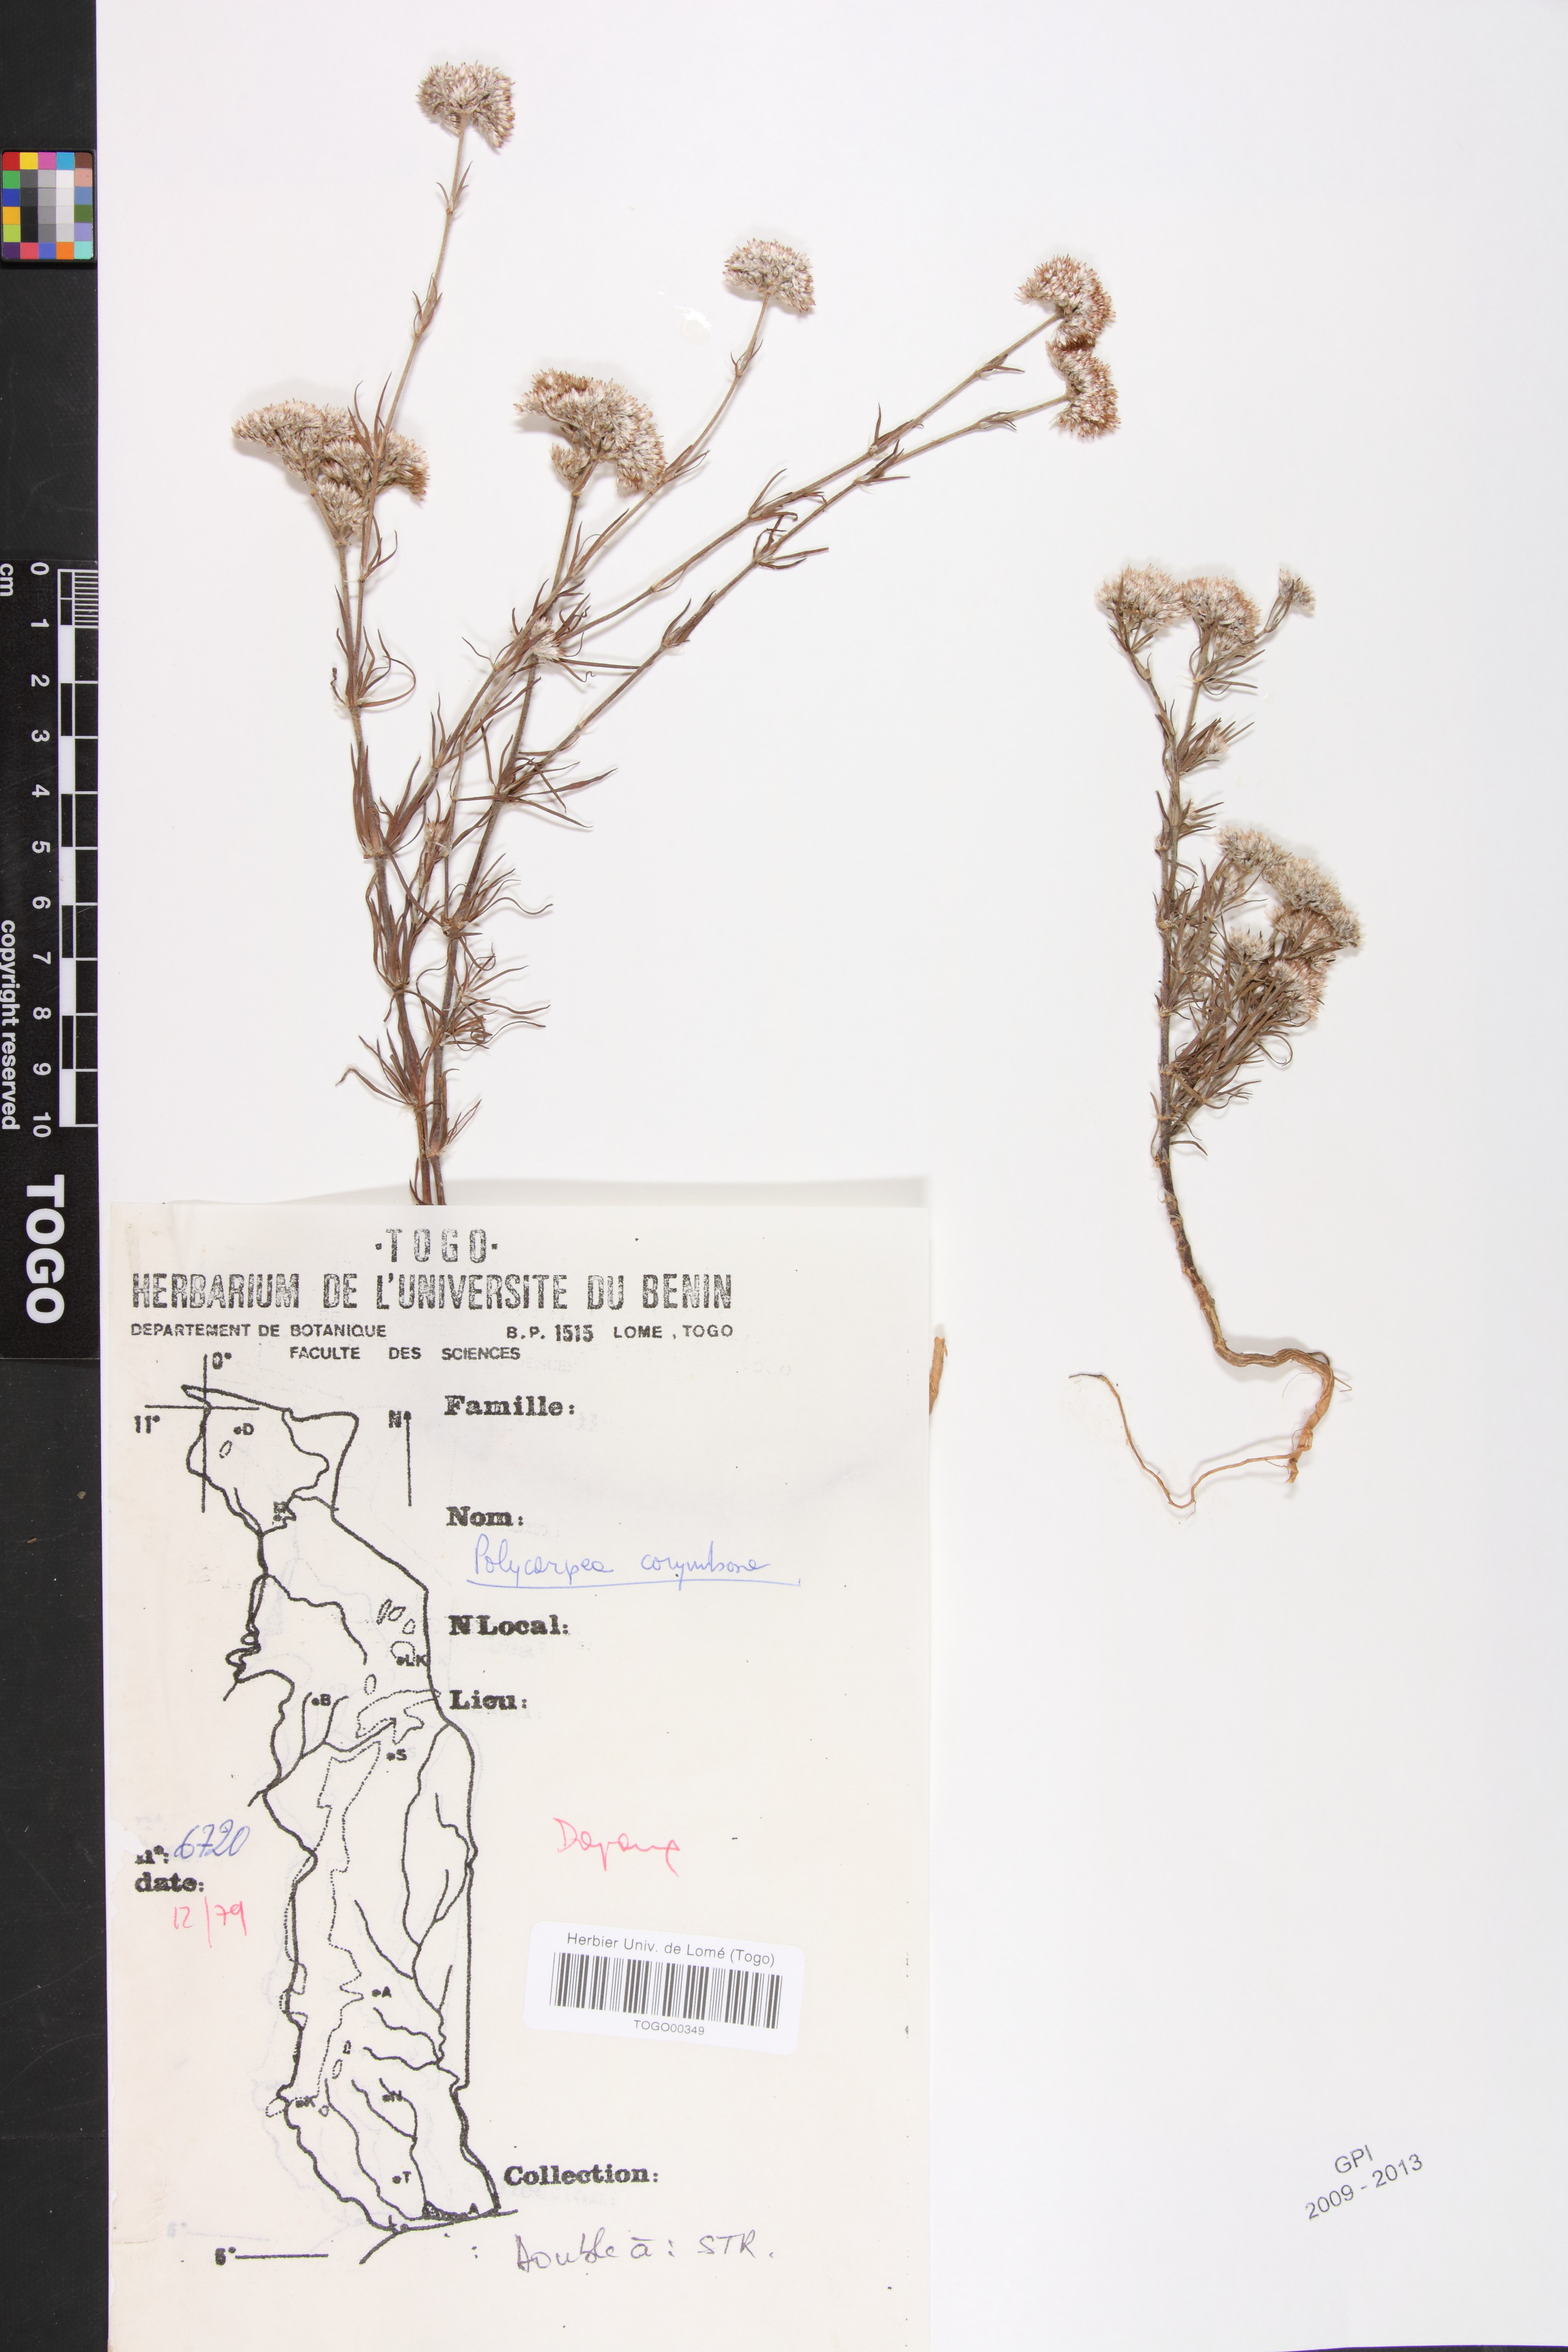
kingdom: Plantae
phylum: Tracheophyta
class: Magnoliopsida
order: Caryophyllales
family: Caryophyllaceae
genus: Polycarpaea
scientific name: Polycarpaea corymbosa
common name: Oldman's cap
